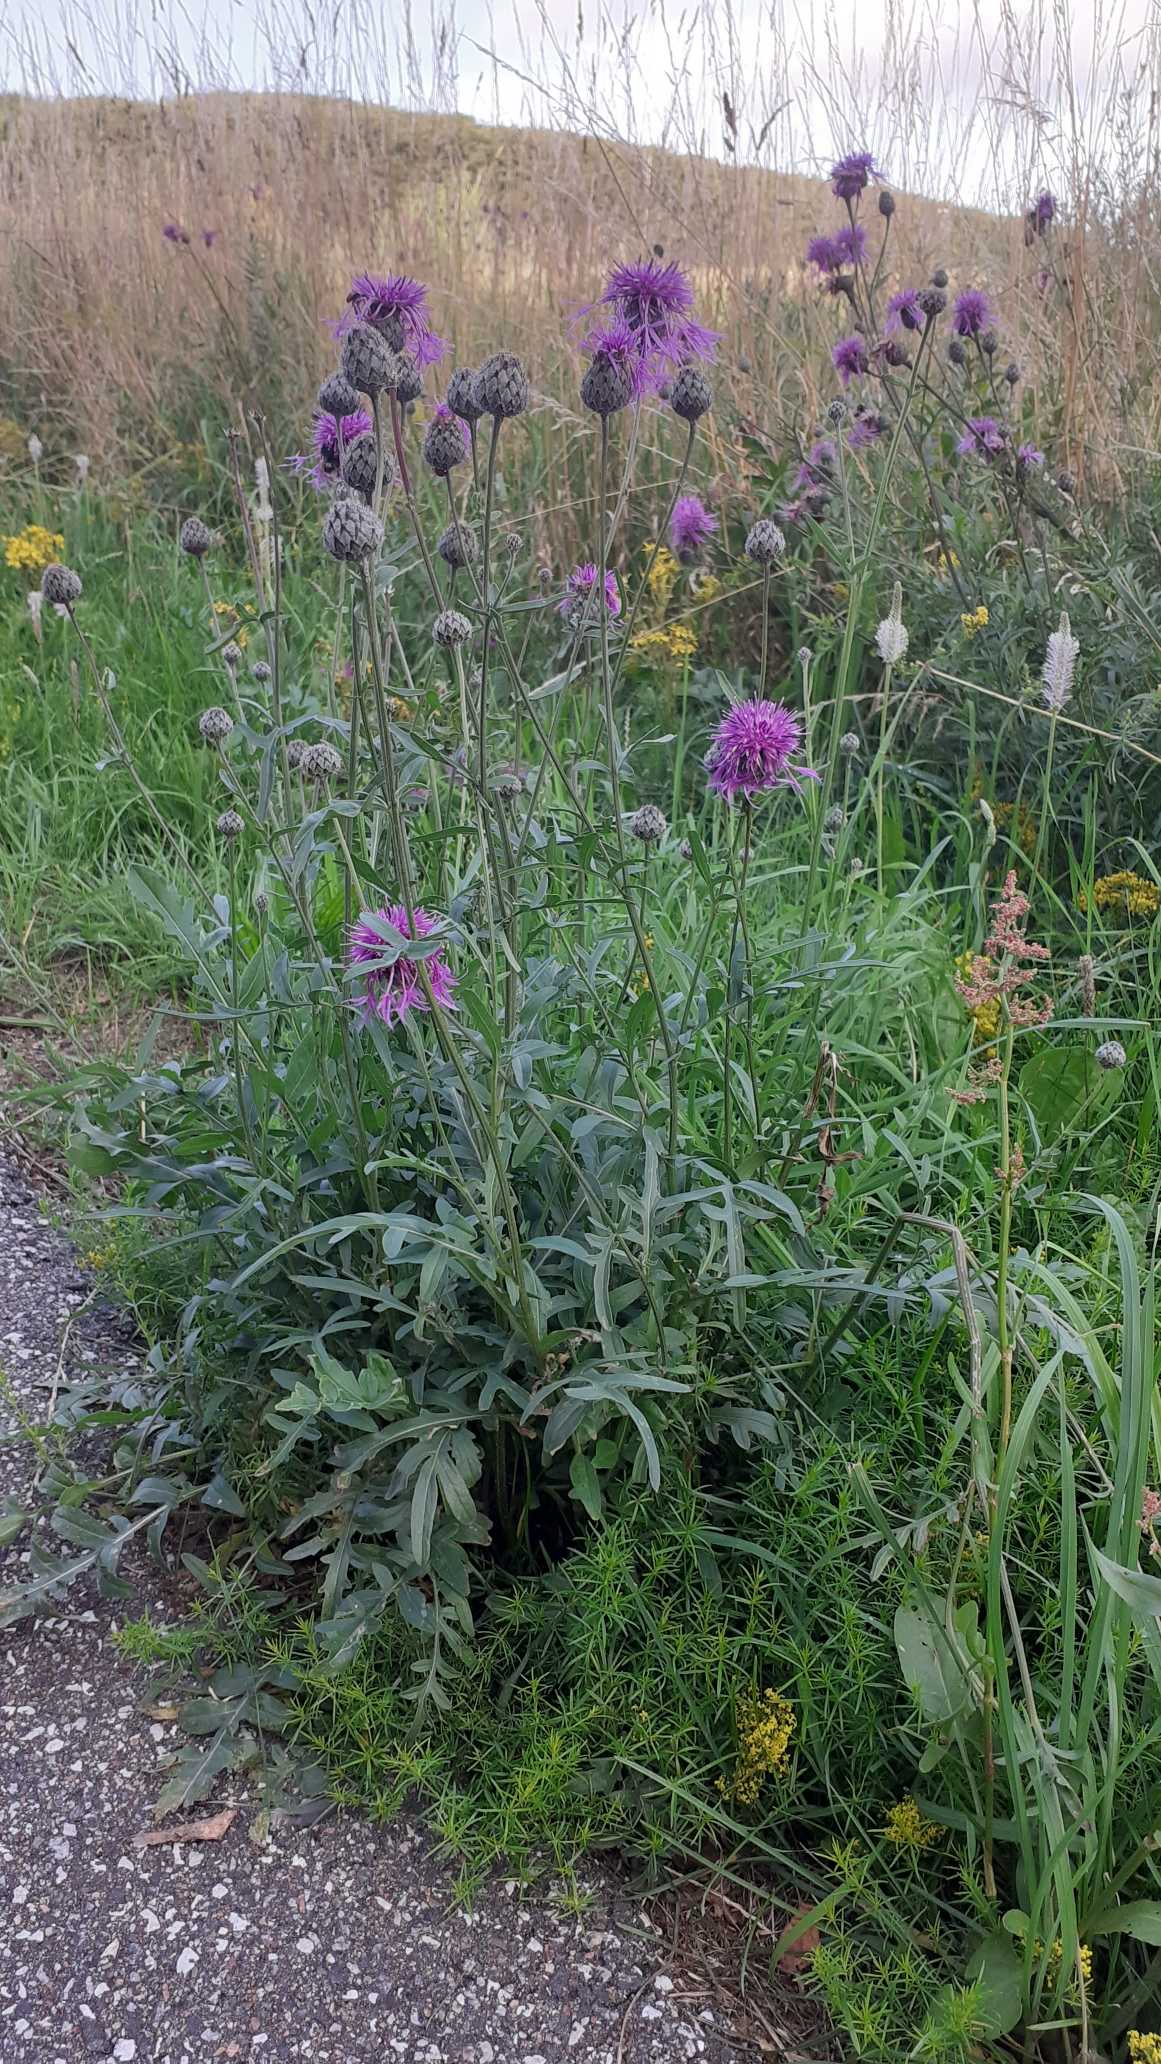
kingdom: Plantae
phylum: Tracheophyta
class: Magnoliopsida
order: Asterales
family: Asteraceae
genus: Centaurea
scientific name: Centaurea scabiosa
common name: Stor knopurt
